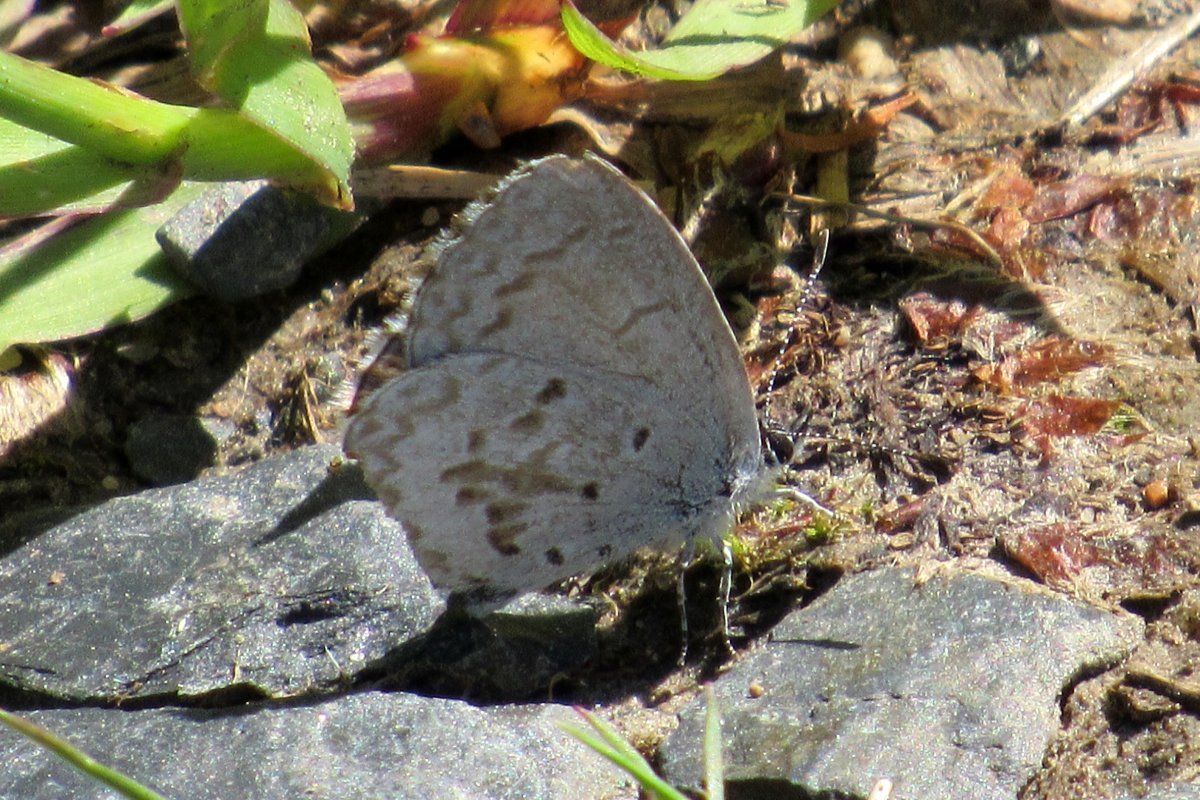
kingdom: Animalia
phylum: Arthropoda
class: Insecta
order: Lepidoptera
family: Lycaenidae
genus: Celastrina
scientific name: Celastrina lucia
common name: Northern Spring Azure
